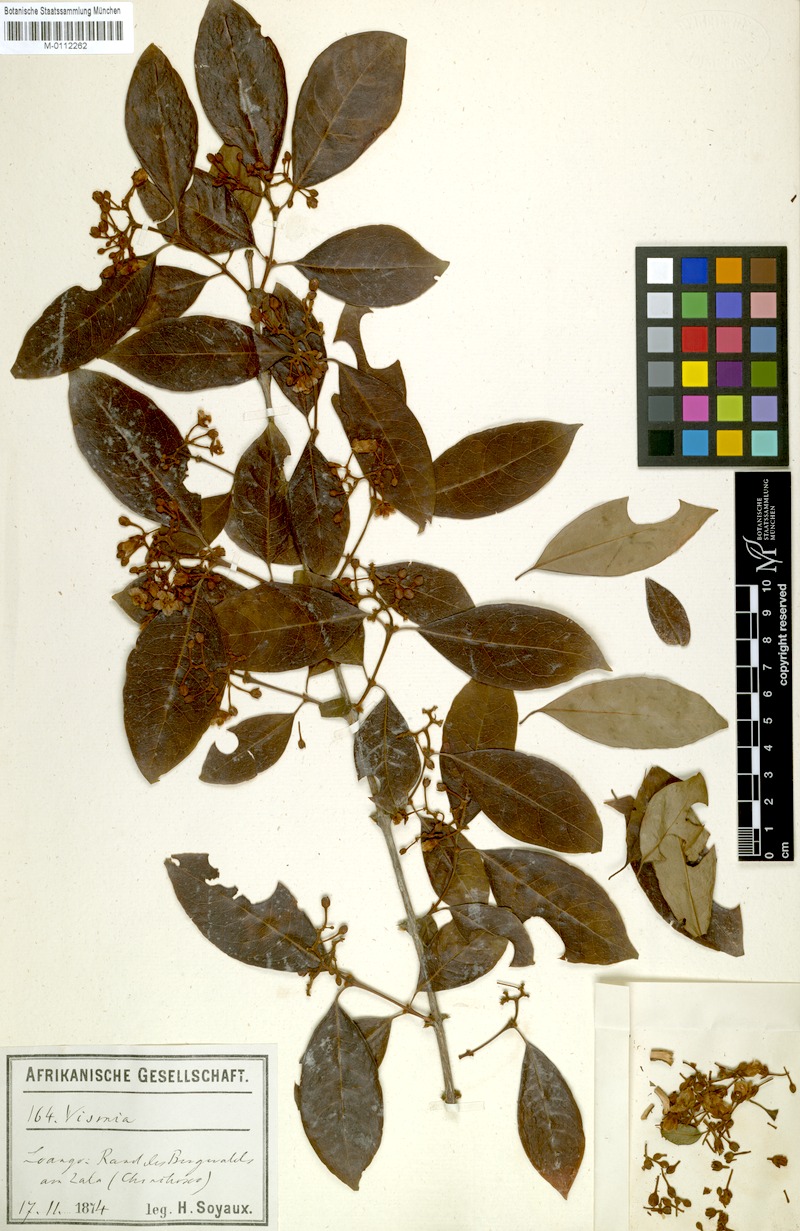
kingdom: Plantae
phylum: Tracheophyta
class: Magnoliopsida
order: Malpighiales
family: Hypericaceae
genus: Psorospermum
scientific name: Psorospermum affine
